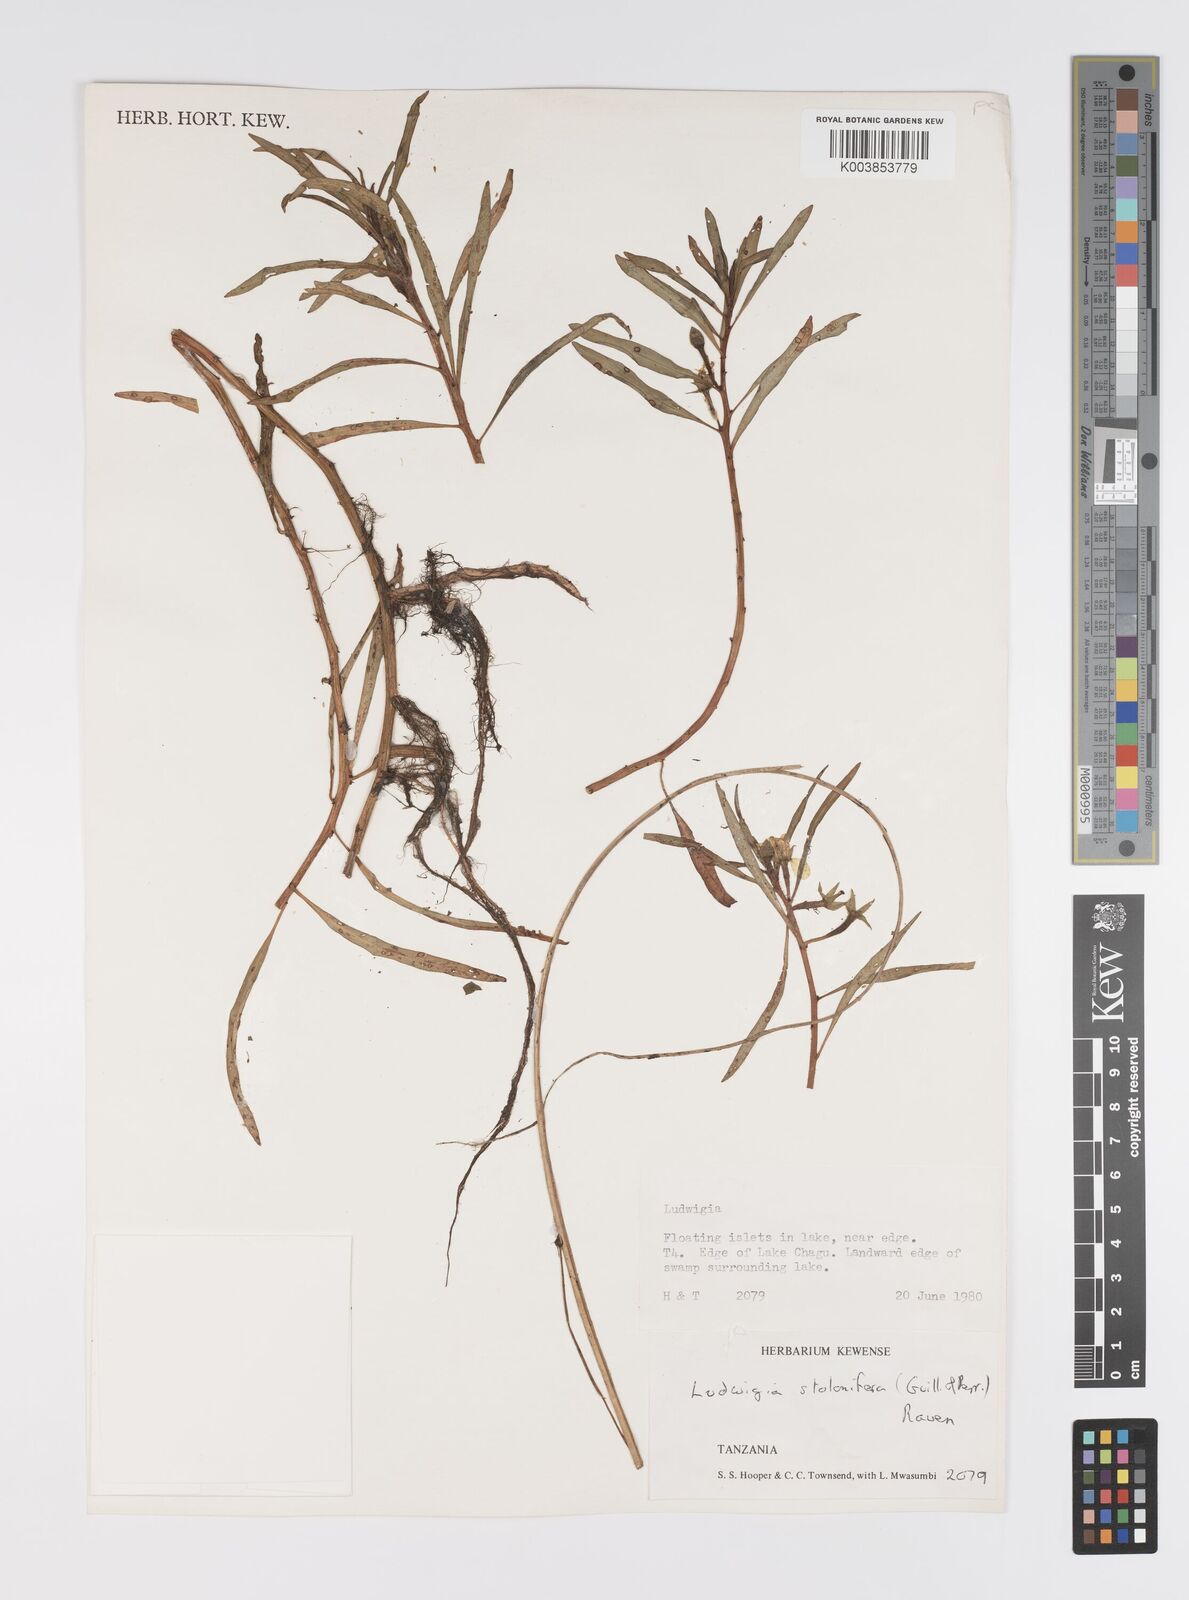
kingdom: Plantae
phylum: Tracheophyta
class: Magnoliopsida
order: Myrtales
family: Onagraceae
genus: Ludwigia
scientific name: Ludwigia repens
